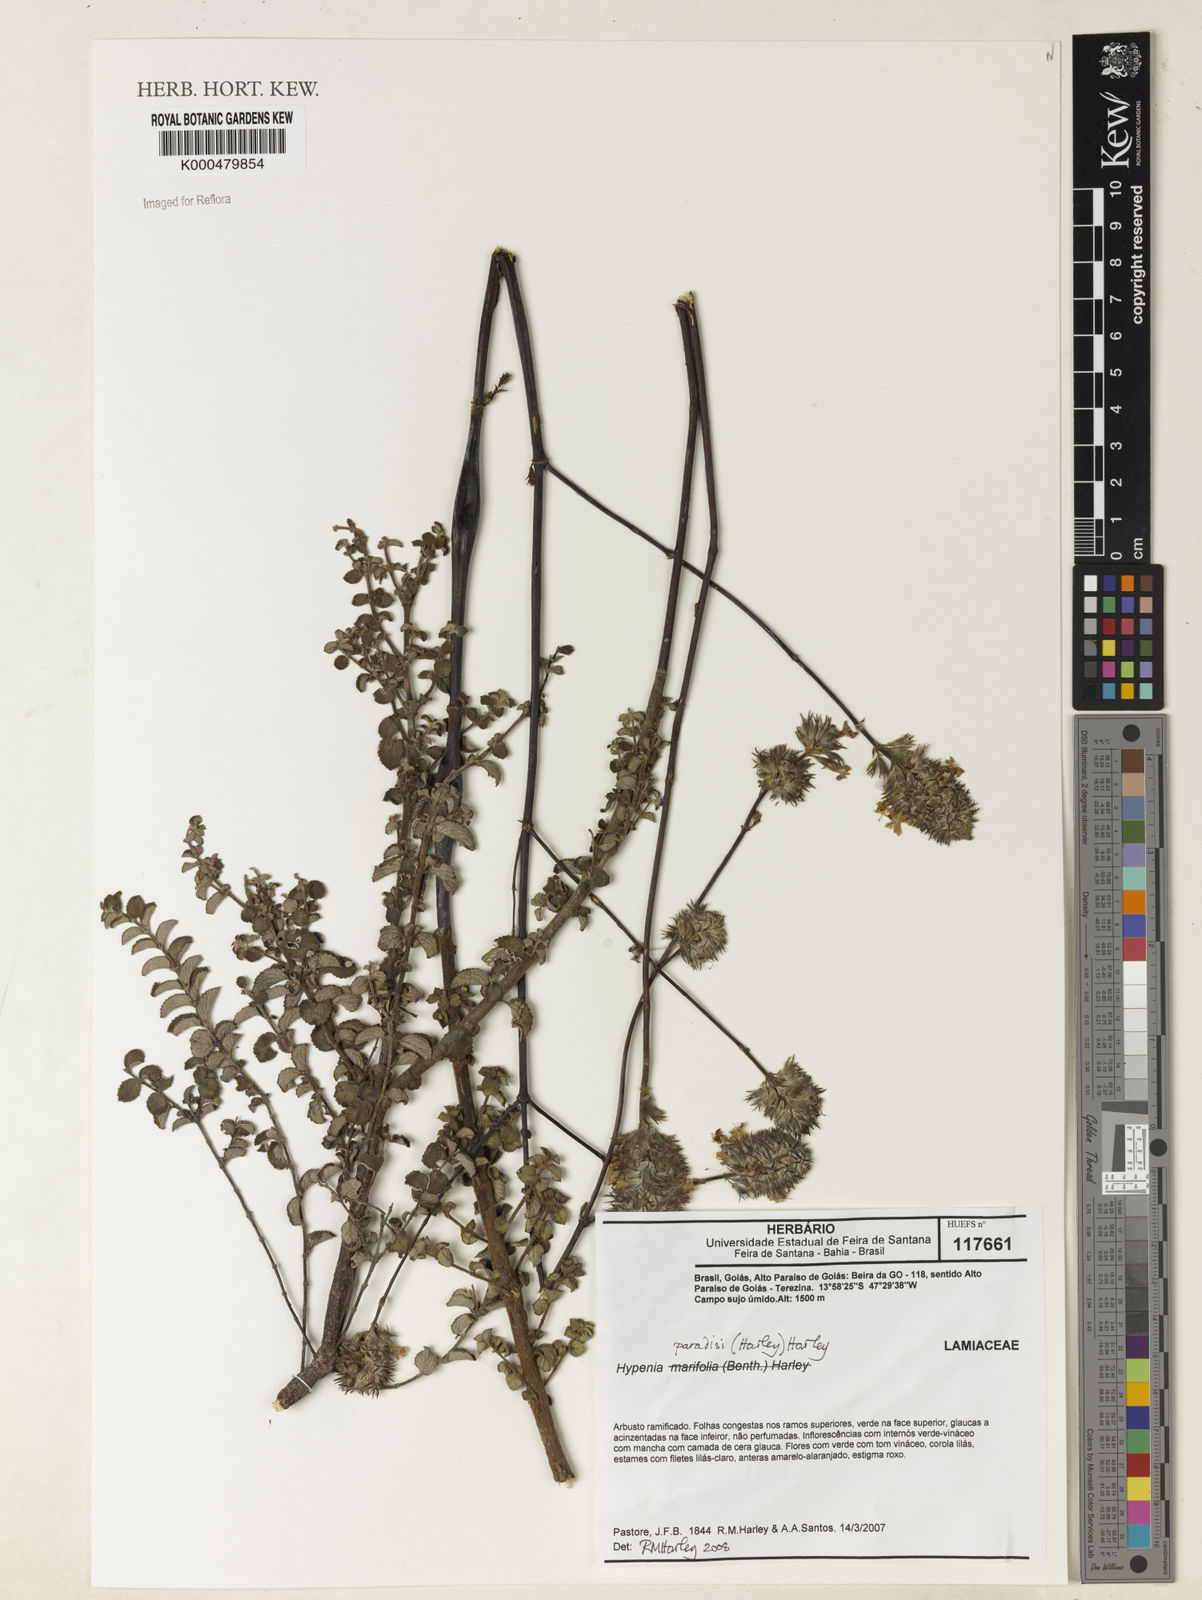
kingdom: Plantae
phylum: Tracheophyta
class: Magnoliopsida
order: Lamiales
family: Lamiaceae
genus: Hypenia
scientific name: Hypenia paradisi
